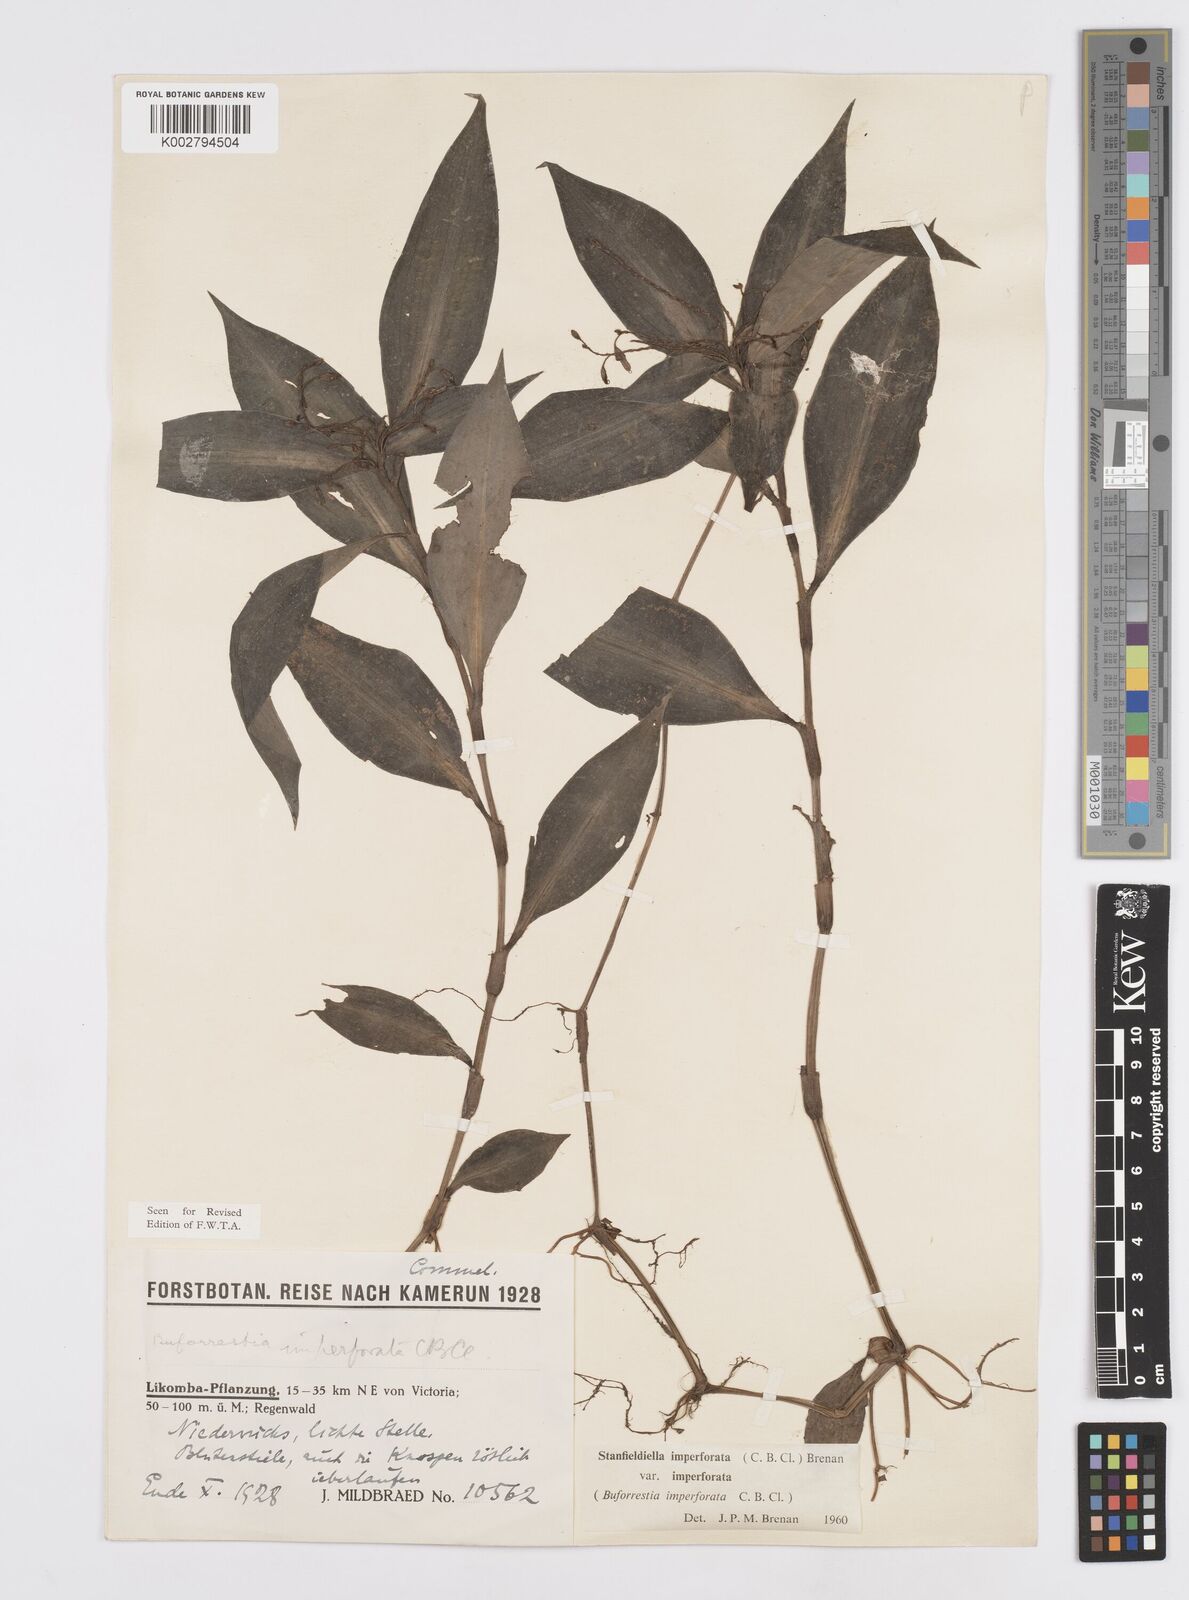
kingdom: Plantae
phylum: Tracheophyta
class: Liliopsida
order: Commelinales
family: Commelinaceae
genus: Stanfieldiella
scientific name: Stanfieldiella imperforata
